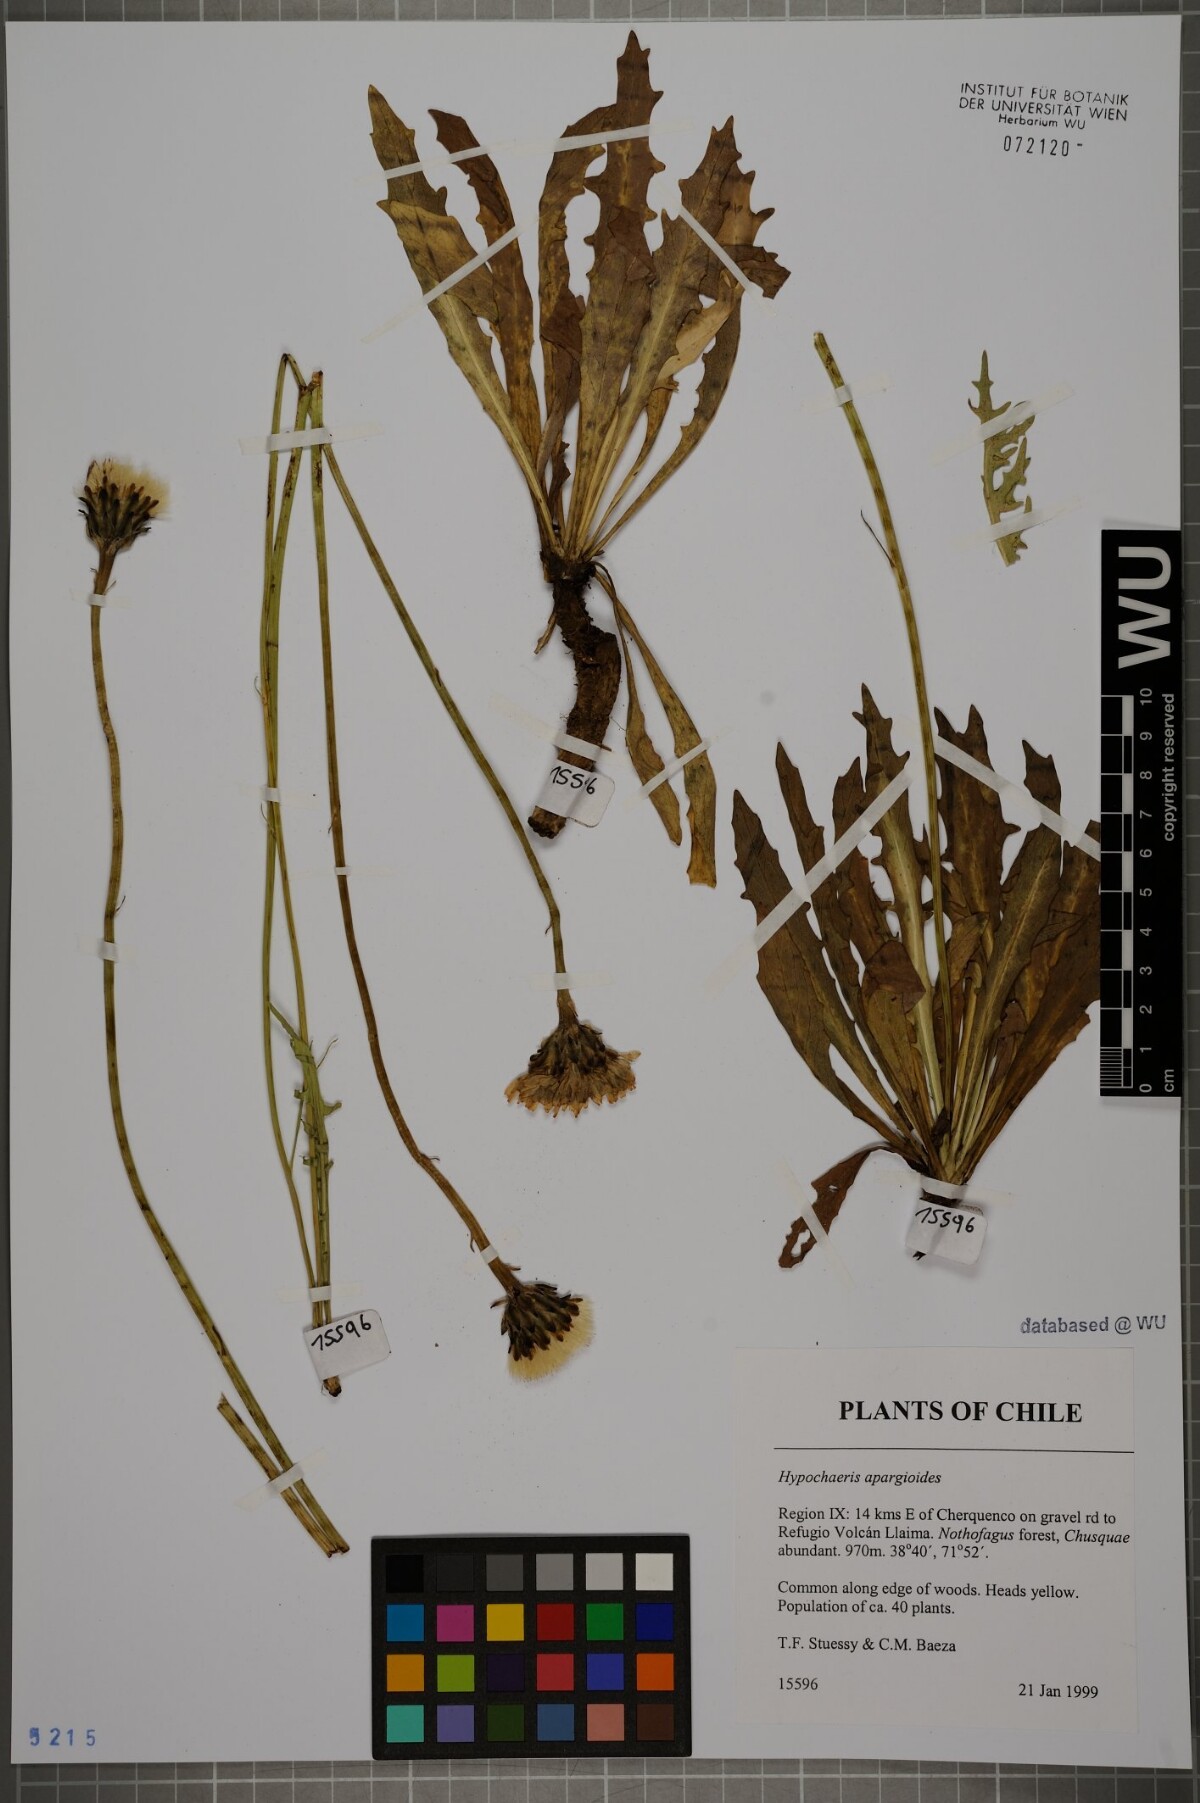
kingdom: Plantae
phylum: Tracheophyta
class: Magnoliopsida
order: Asterales
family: Asteraceae
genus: Hypochaeris
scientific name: Hypochaeris apargioides
